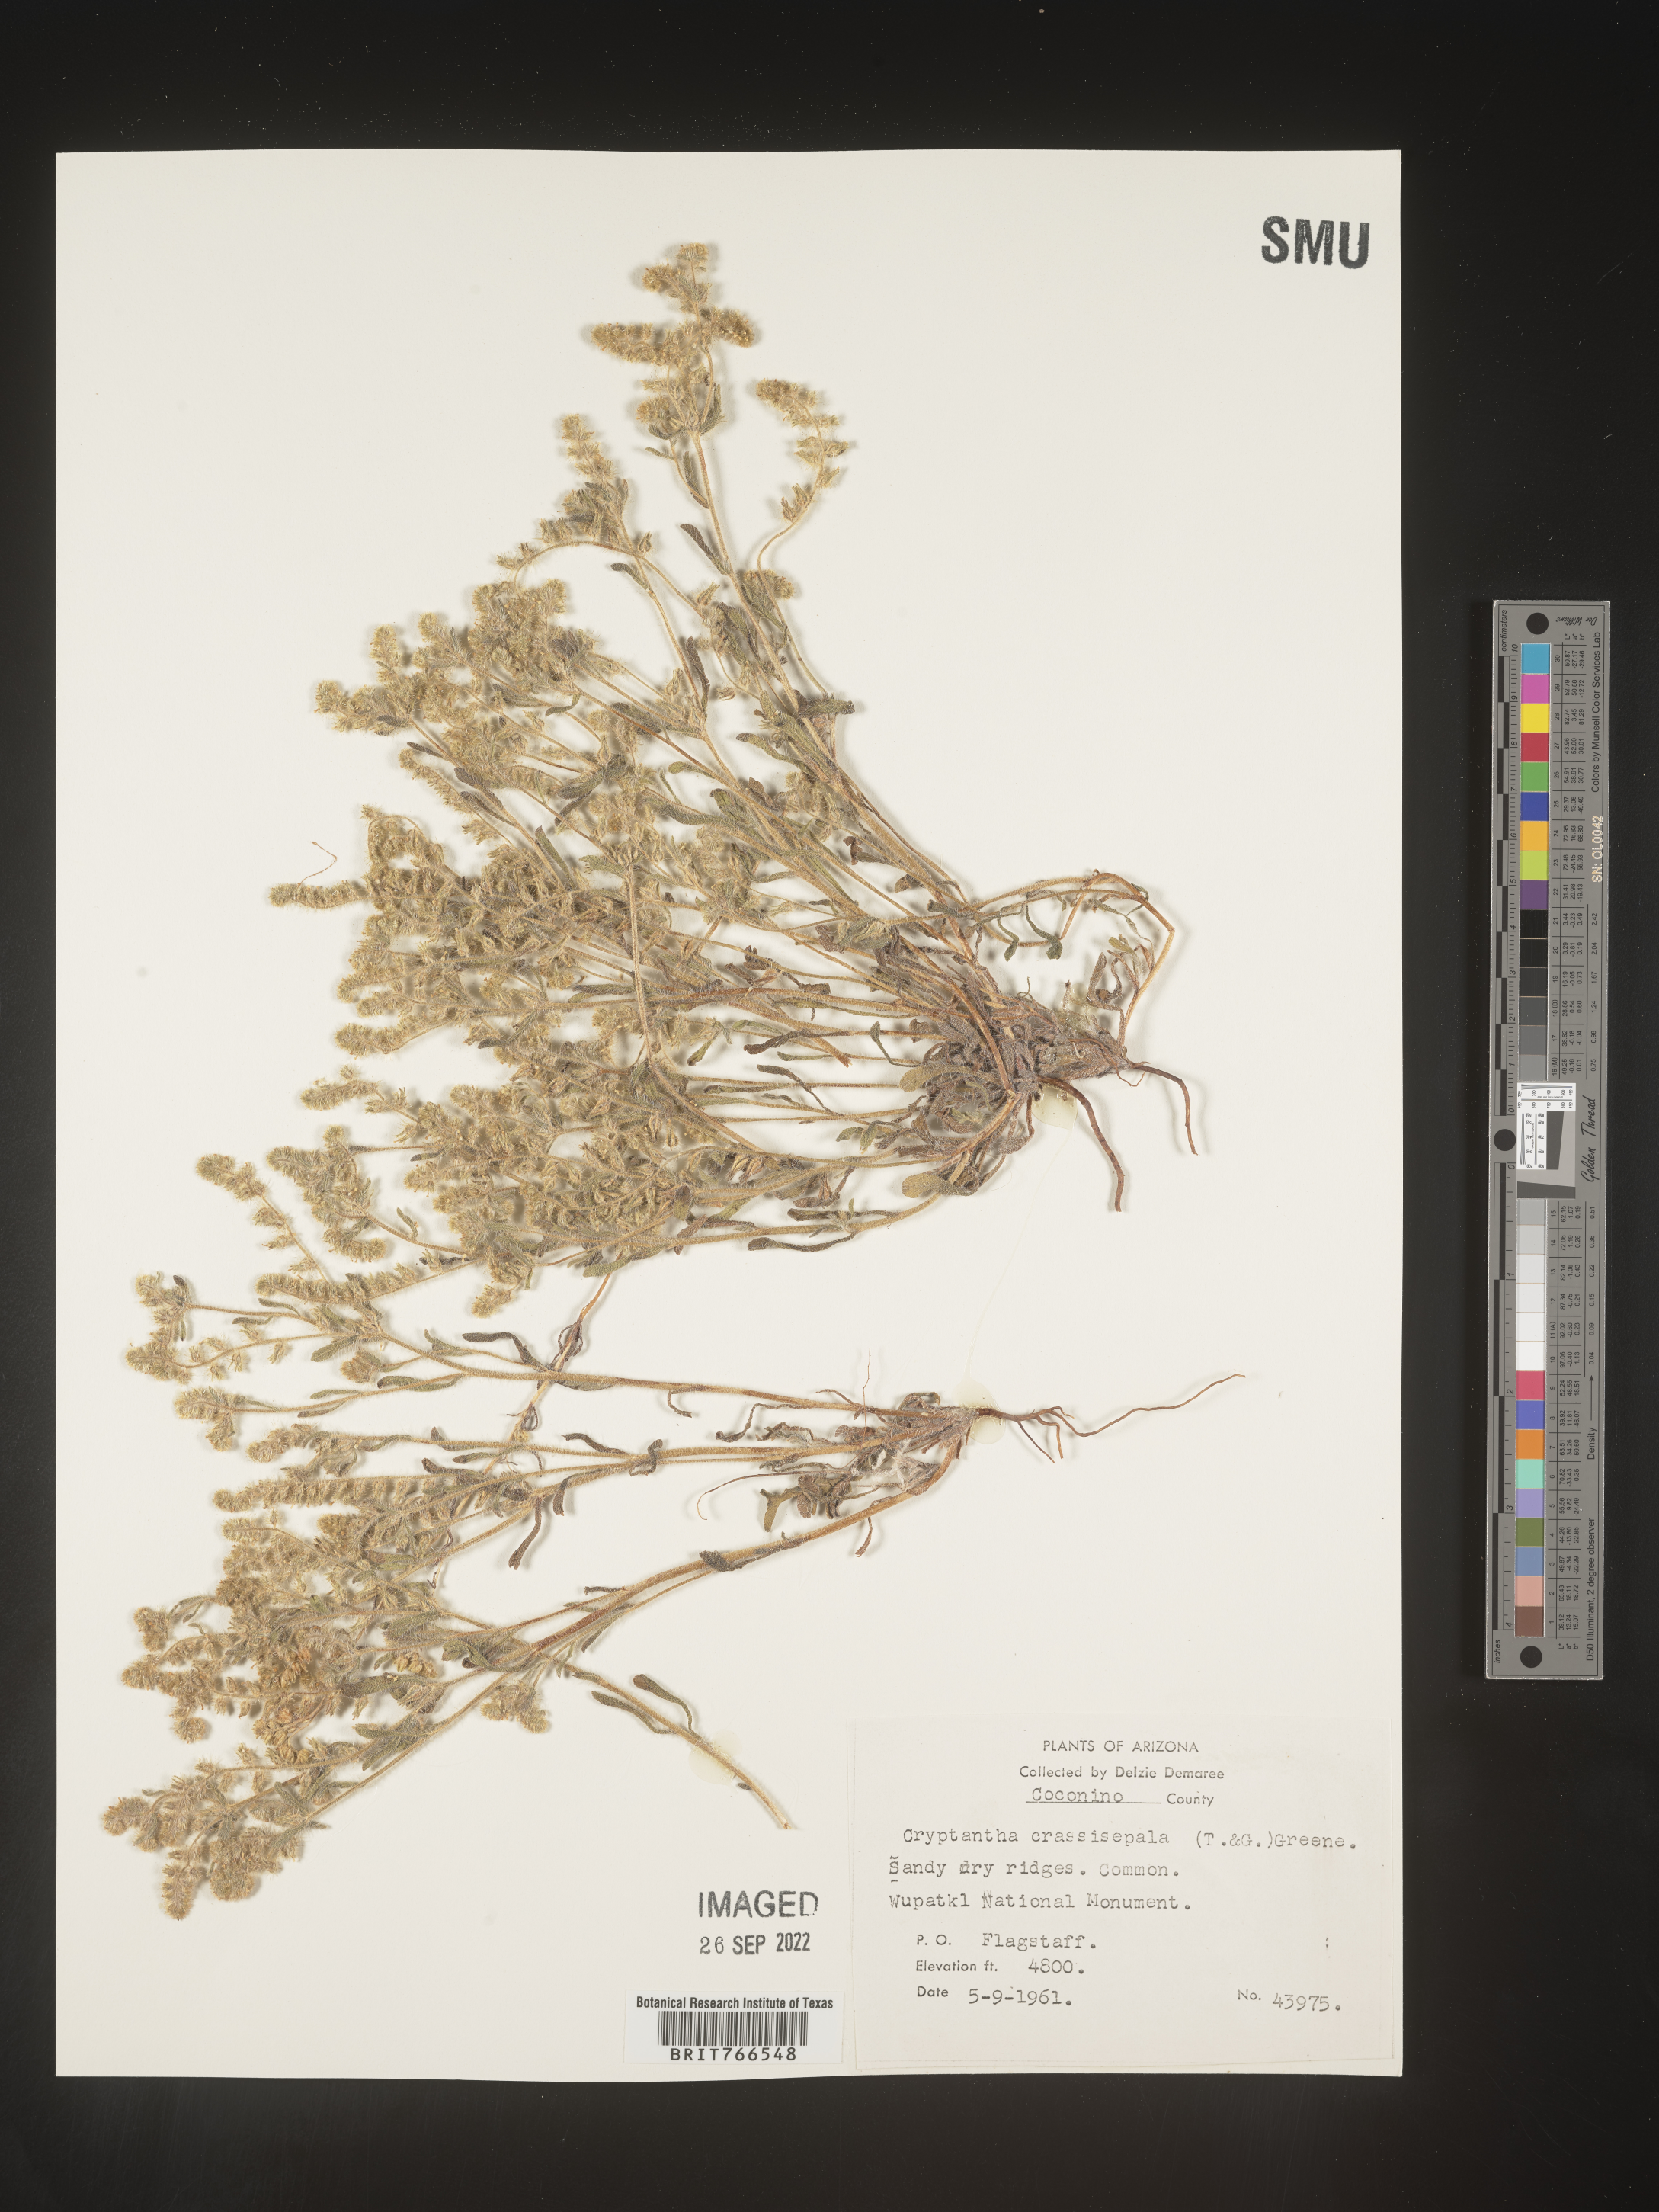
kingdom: Plantae
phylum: Tracheophyta
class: Magnoliopsida
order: Boraginales
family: Boraginaceae
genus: Cryptantha
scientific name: Cryptantha
